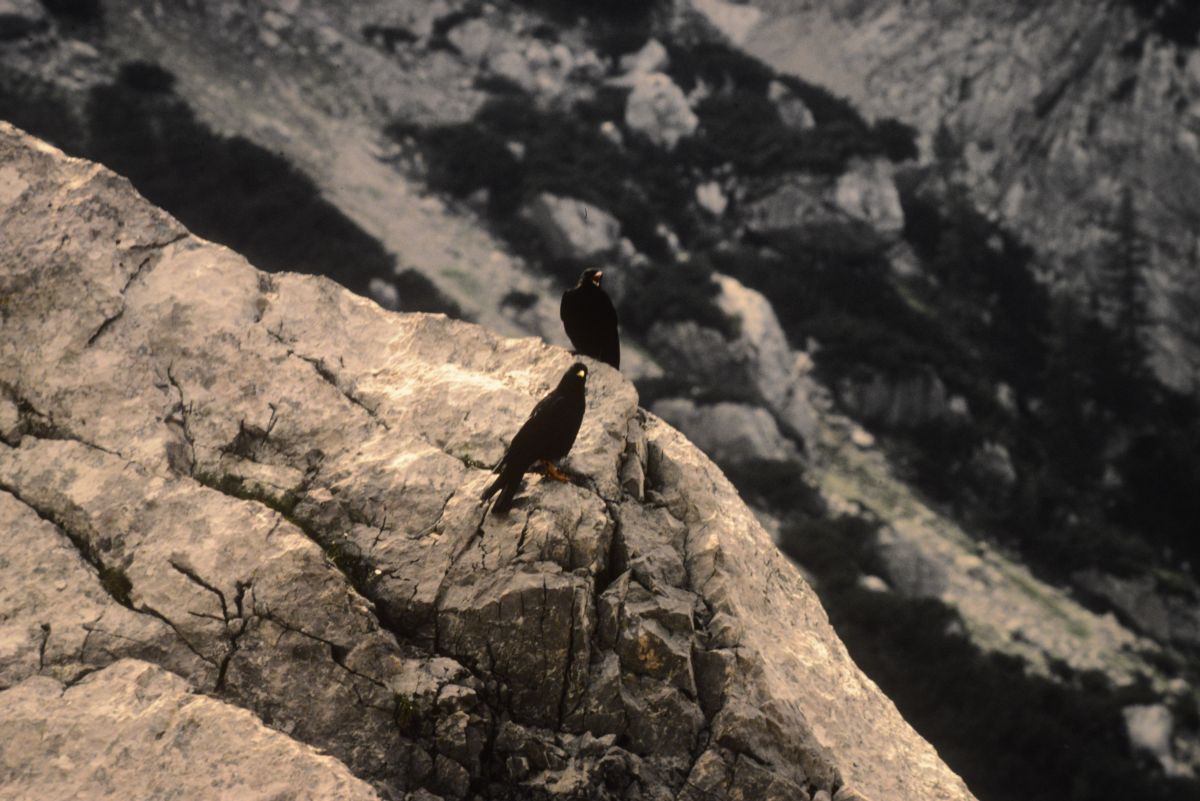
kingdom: Animalia
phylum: Chordata
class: Aves
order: Passeriformes
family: Corvidae
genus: Pyrrhocorax
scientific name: Pyrrhocorax graculus
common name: Alpine chough
